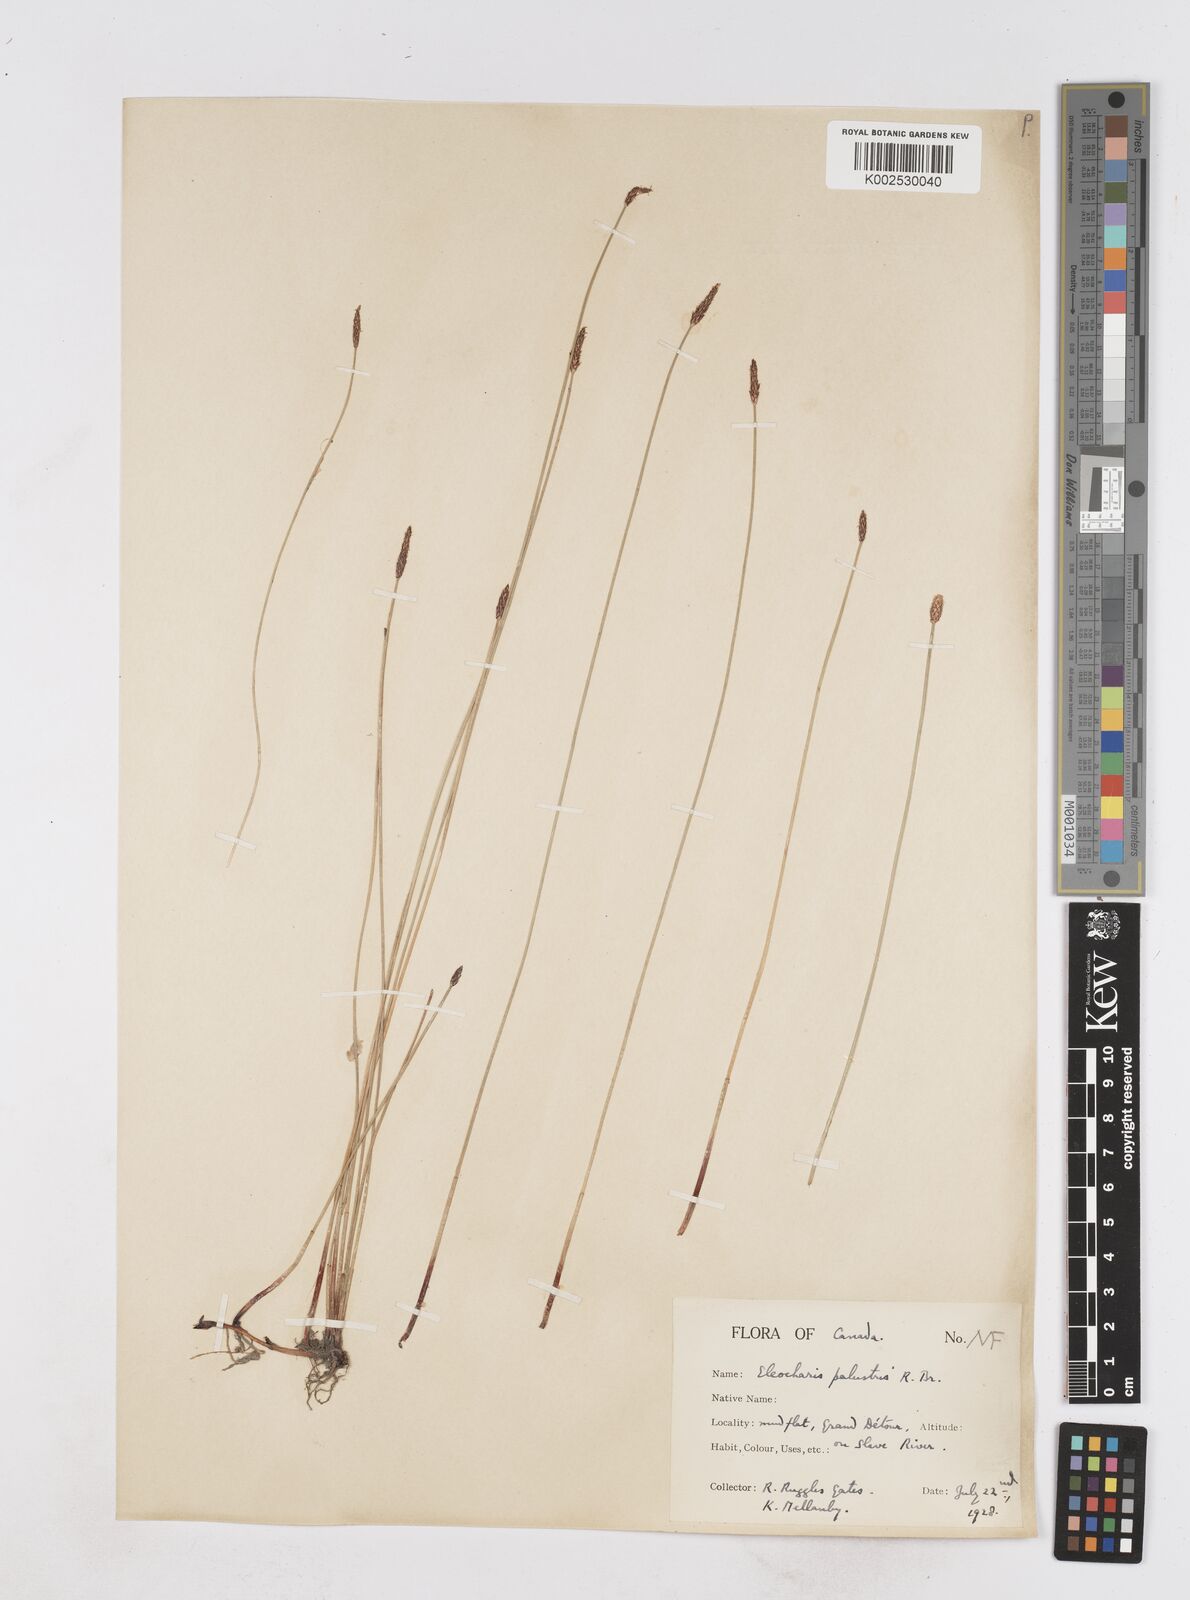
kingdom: Plantae
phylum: Tracheophyta
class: Liliopsida
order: Poales
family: Cyperaceae
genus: Eleocharis
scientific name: Eleocharis palustris
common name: Common spike-rush
